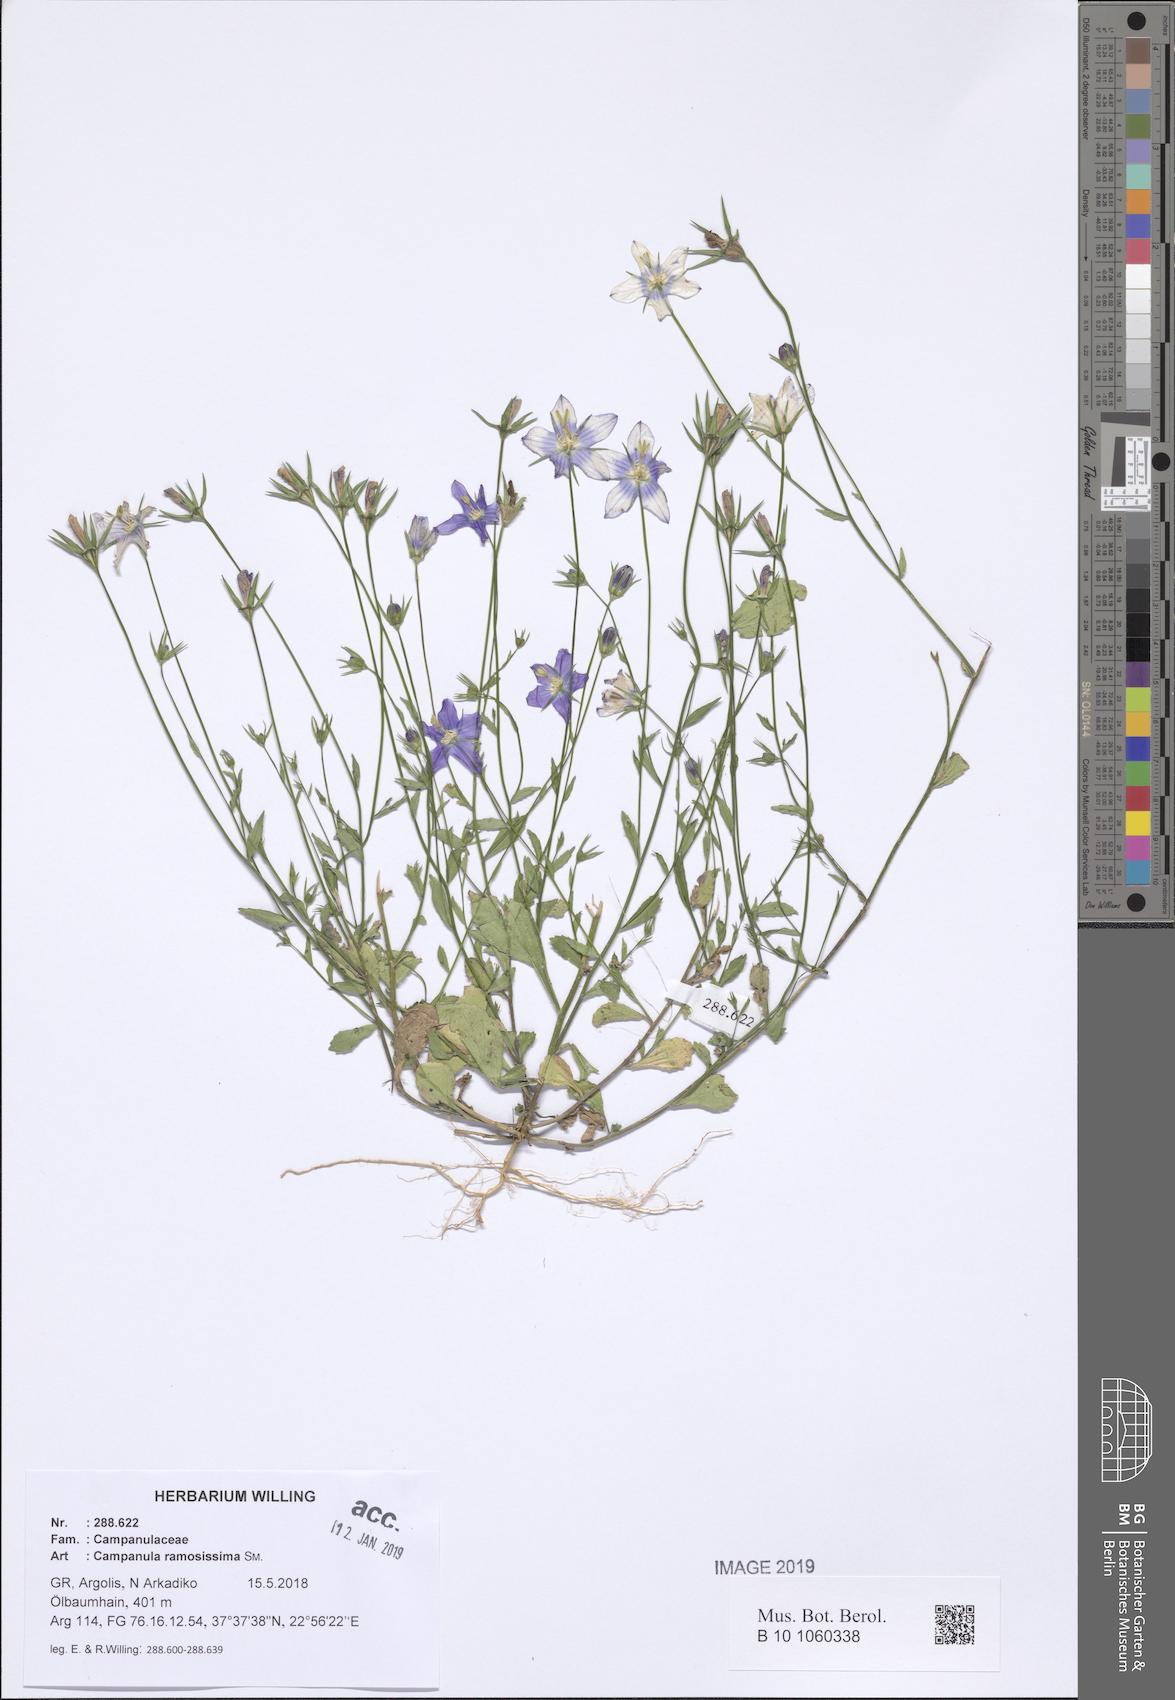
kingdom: Plantae
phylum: Tracheophyta
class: Magnoliopsida
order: Asterales
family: Campanulaceae
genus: Campanula
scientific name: Campanula ramosissima
